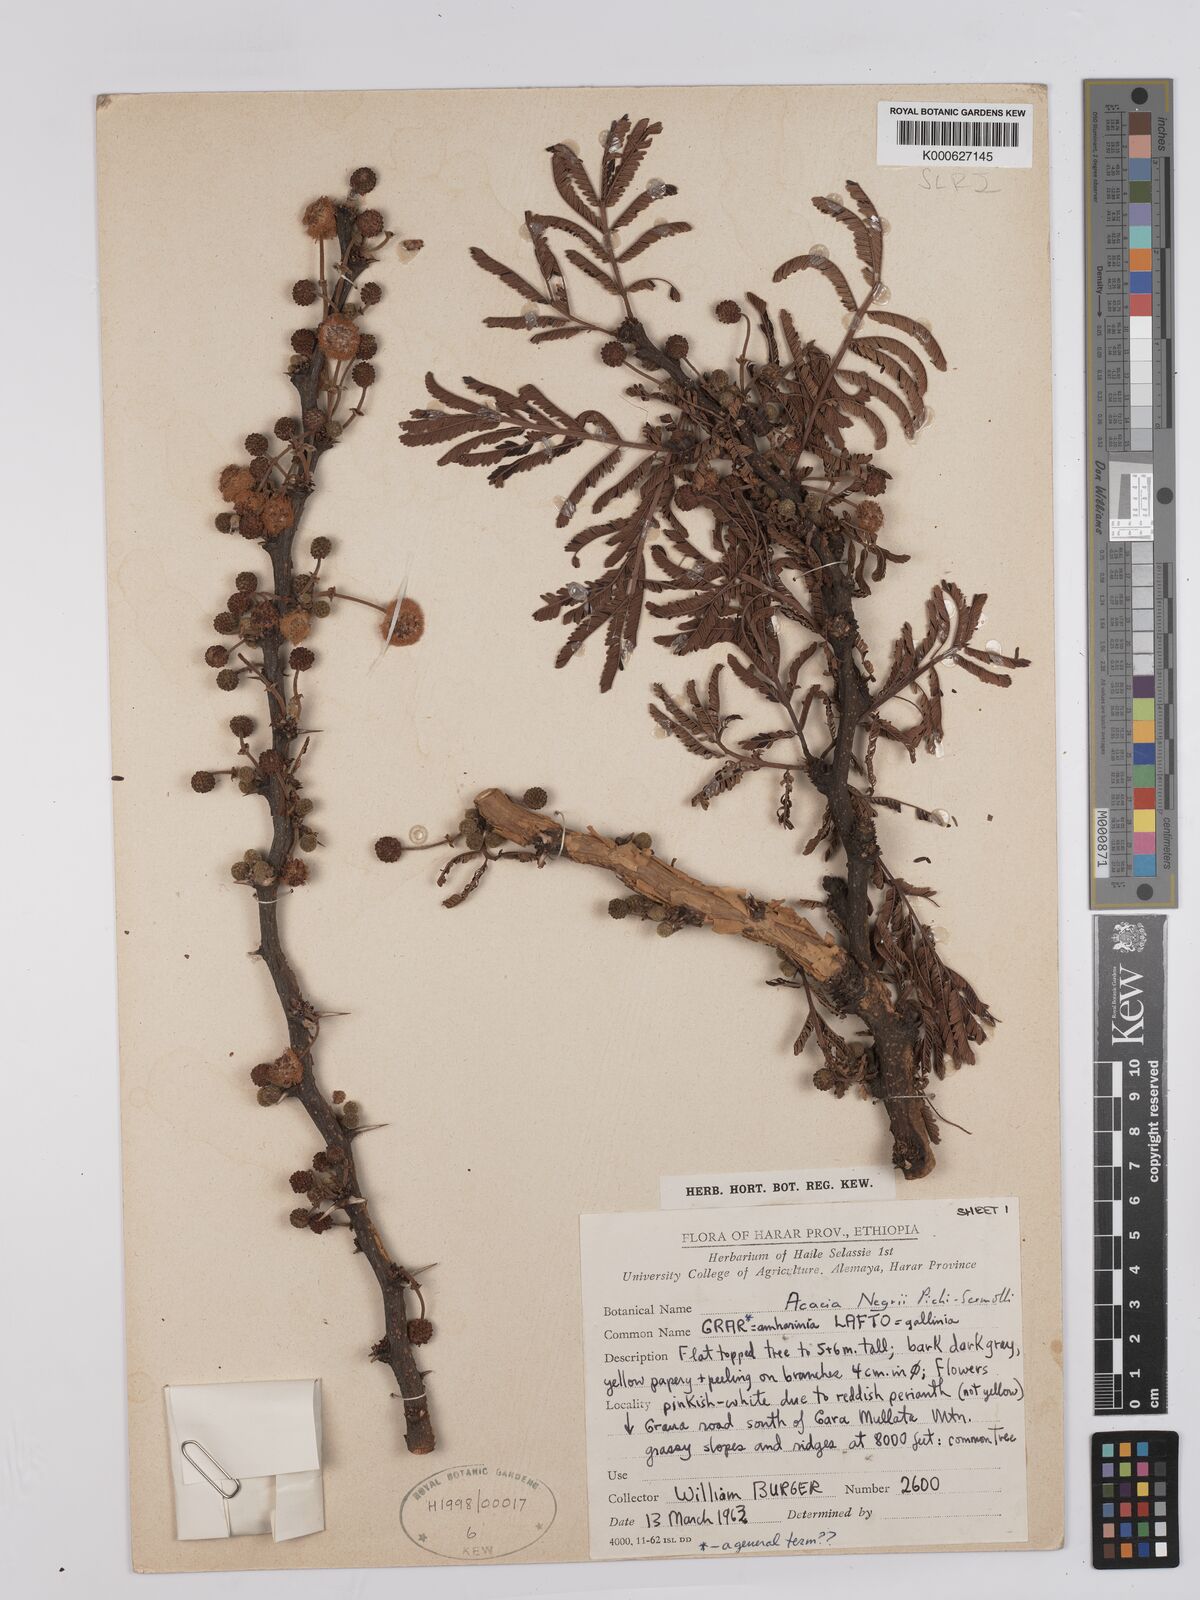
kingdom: Plantae
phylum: Tracheophyta
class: Magnoliopsida
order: Fabales
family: Fabaceae
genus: Vachellia
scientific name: Vachellia negrii
